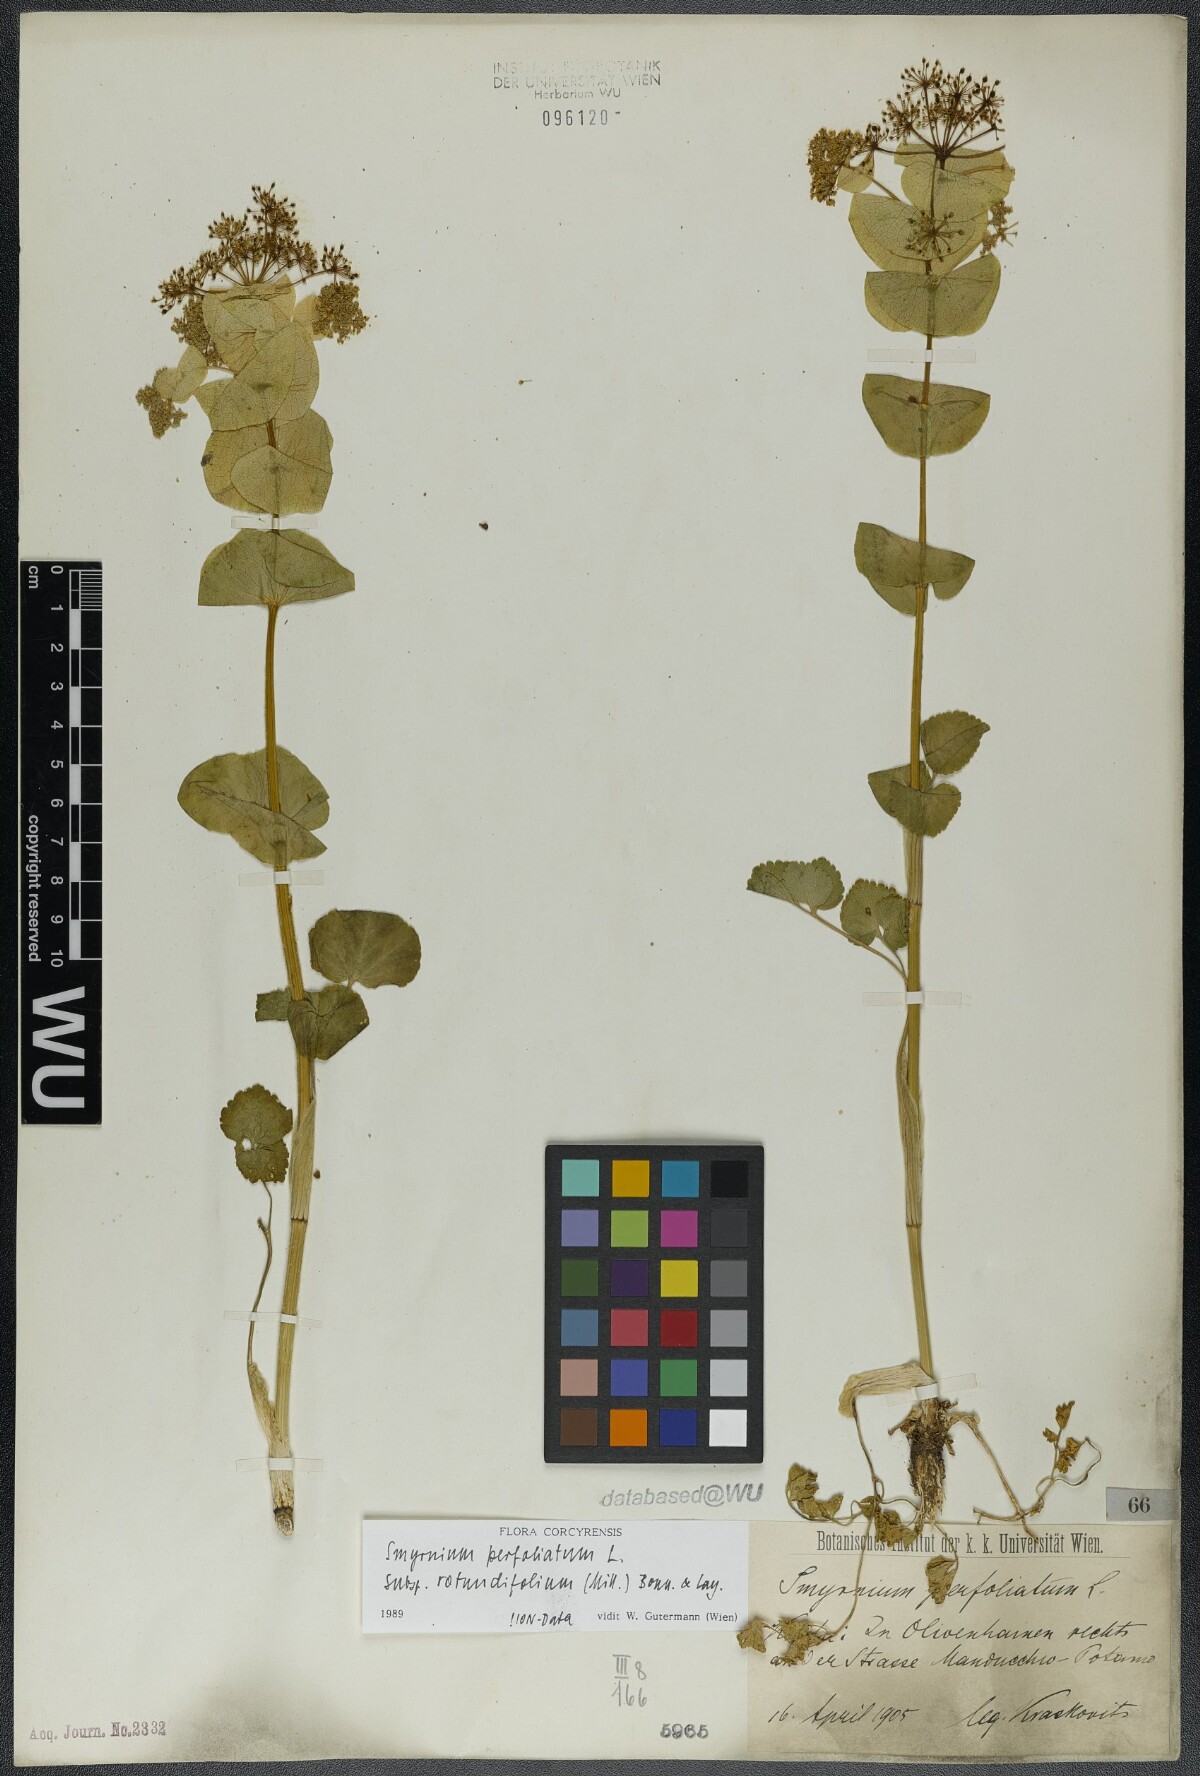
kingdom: Plantae
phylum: Tracheophyta
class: Magnoliopsida
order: Apiales
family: Apiaceae
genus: Smyrnium
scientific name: Smyrnium perfoliatum
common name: Perfoliate alexanders
